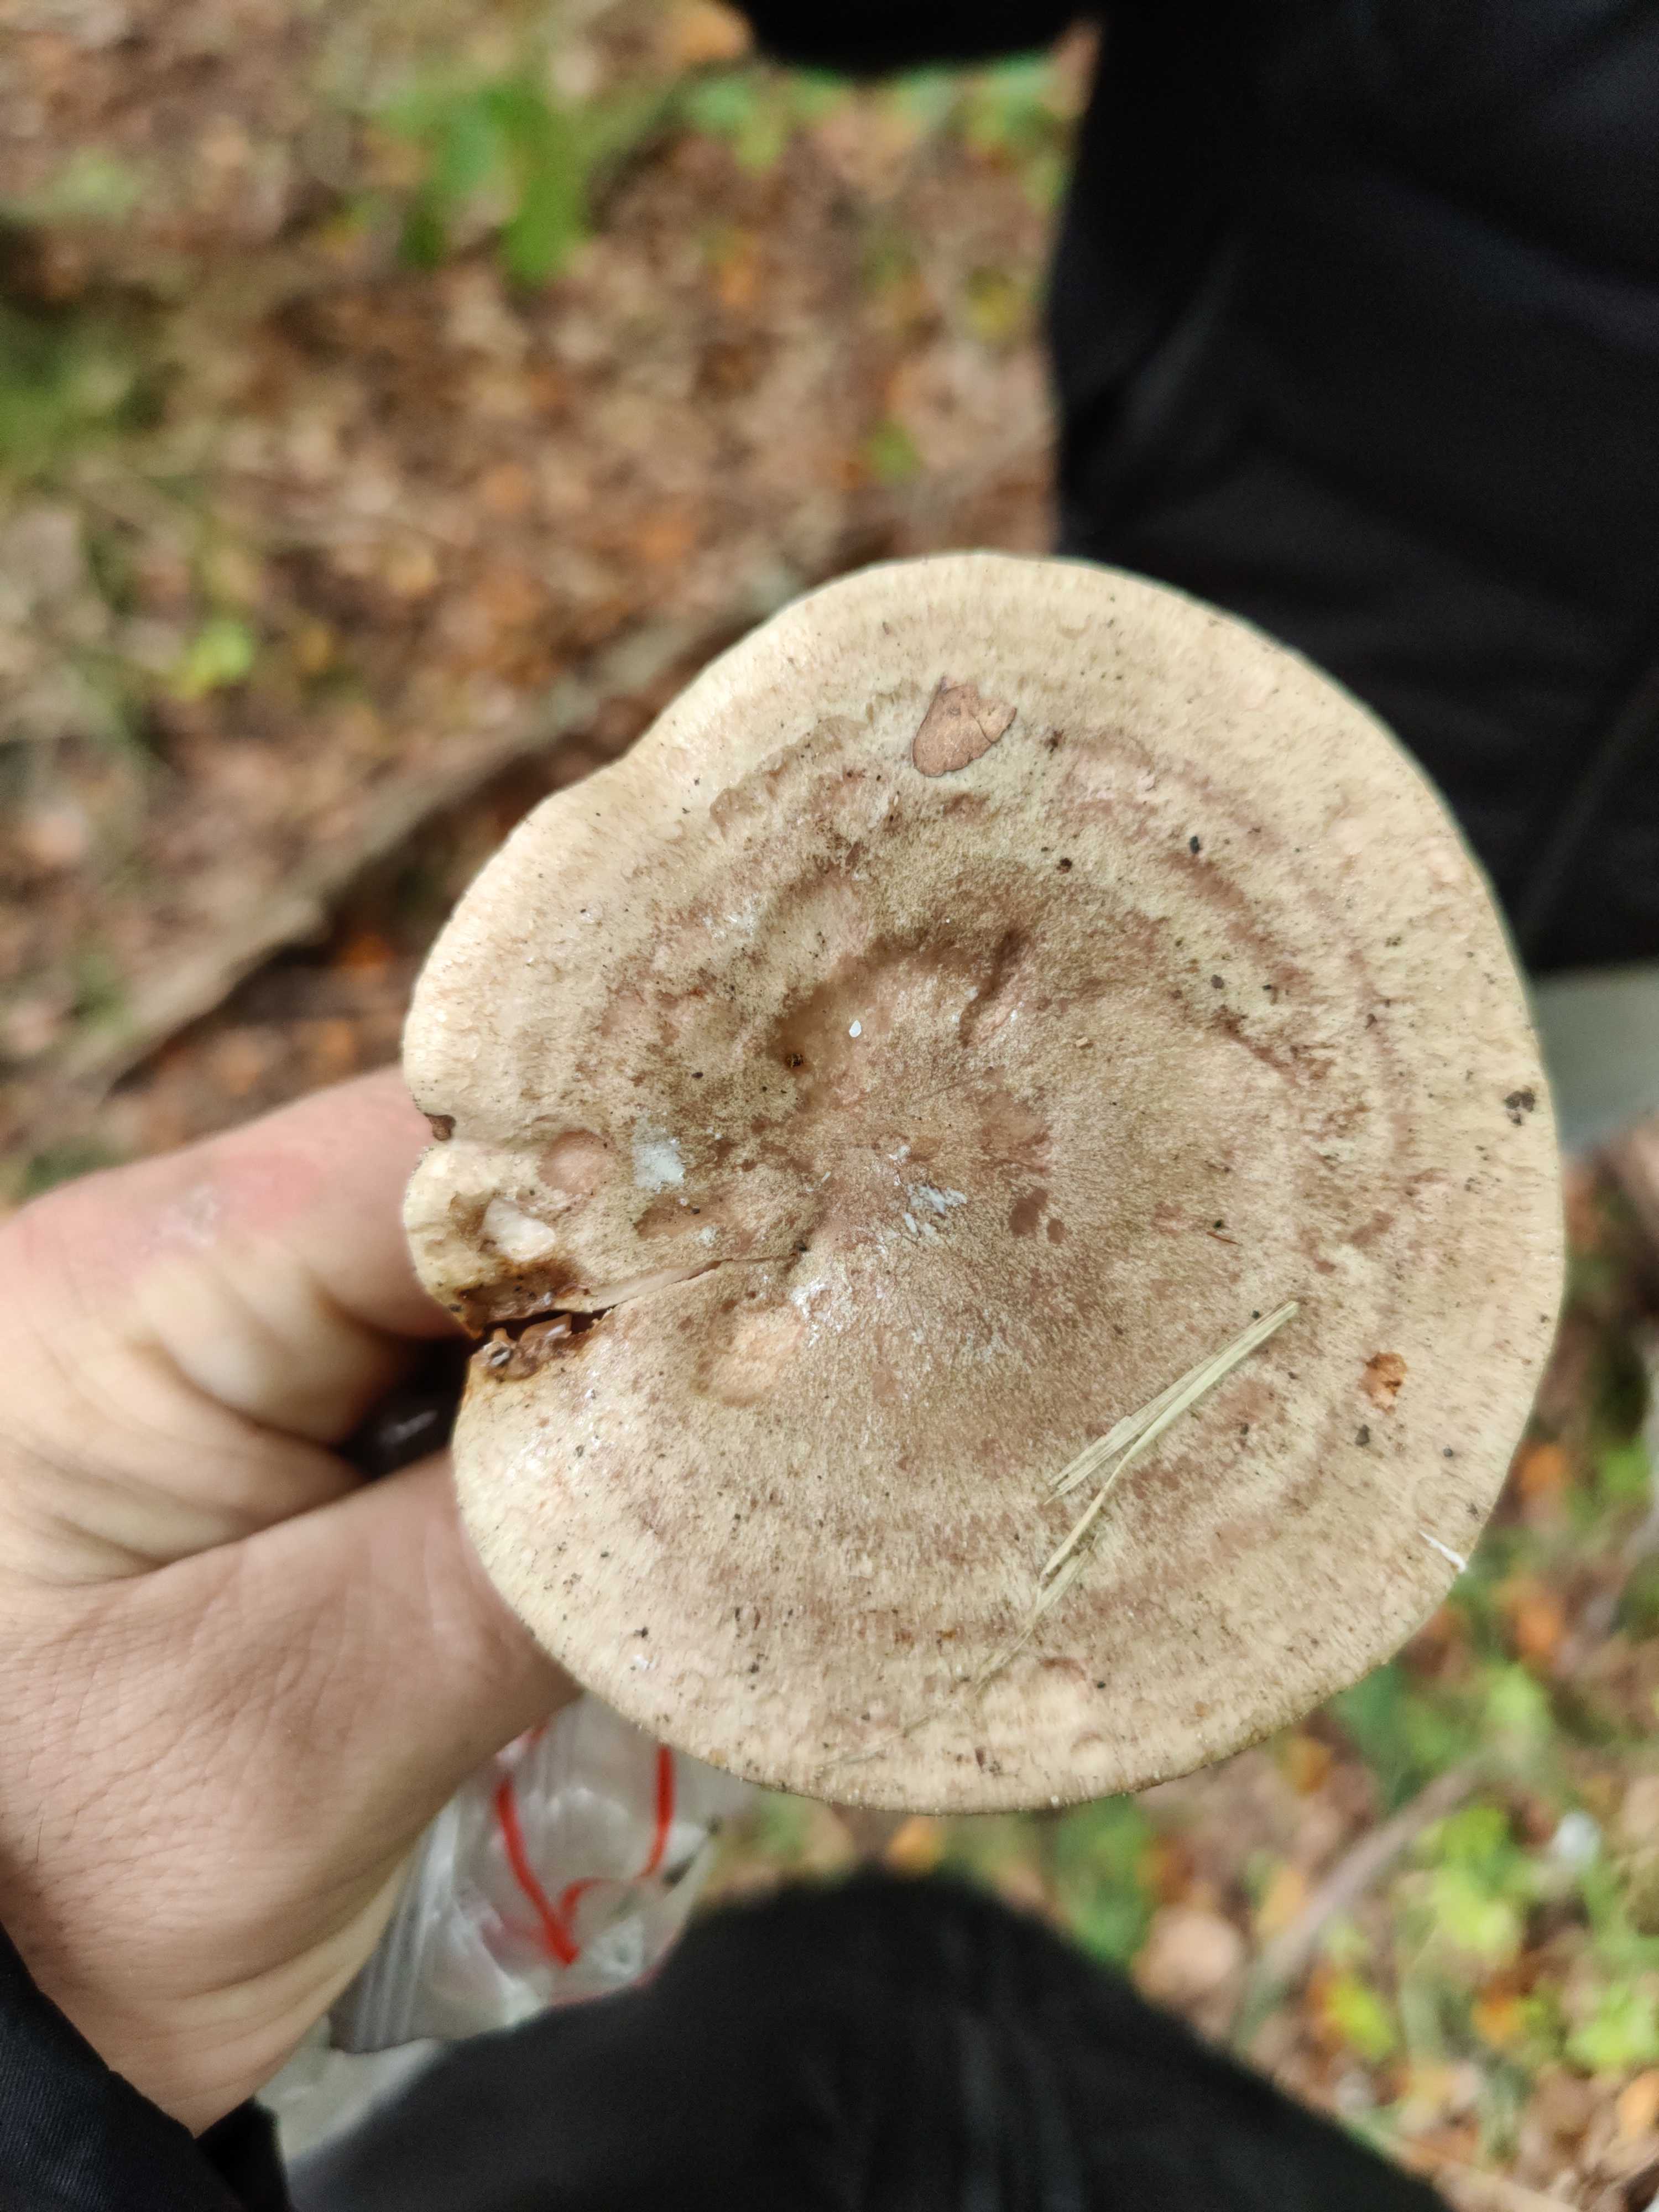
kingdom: Fungi
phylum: Basidiomycota
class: Agaricomycetes
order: Russulales
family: Russulaceae
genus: Lactarius
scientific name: Lactarius
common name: mælkehat
